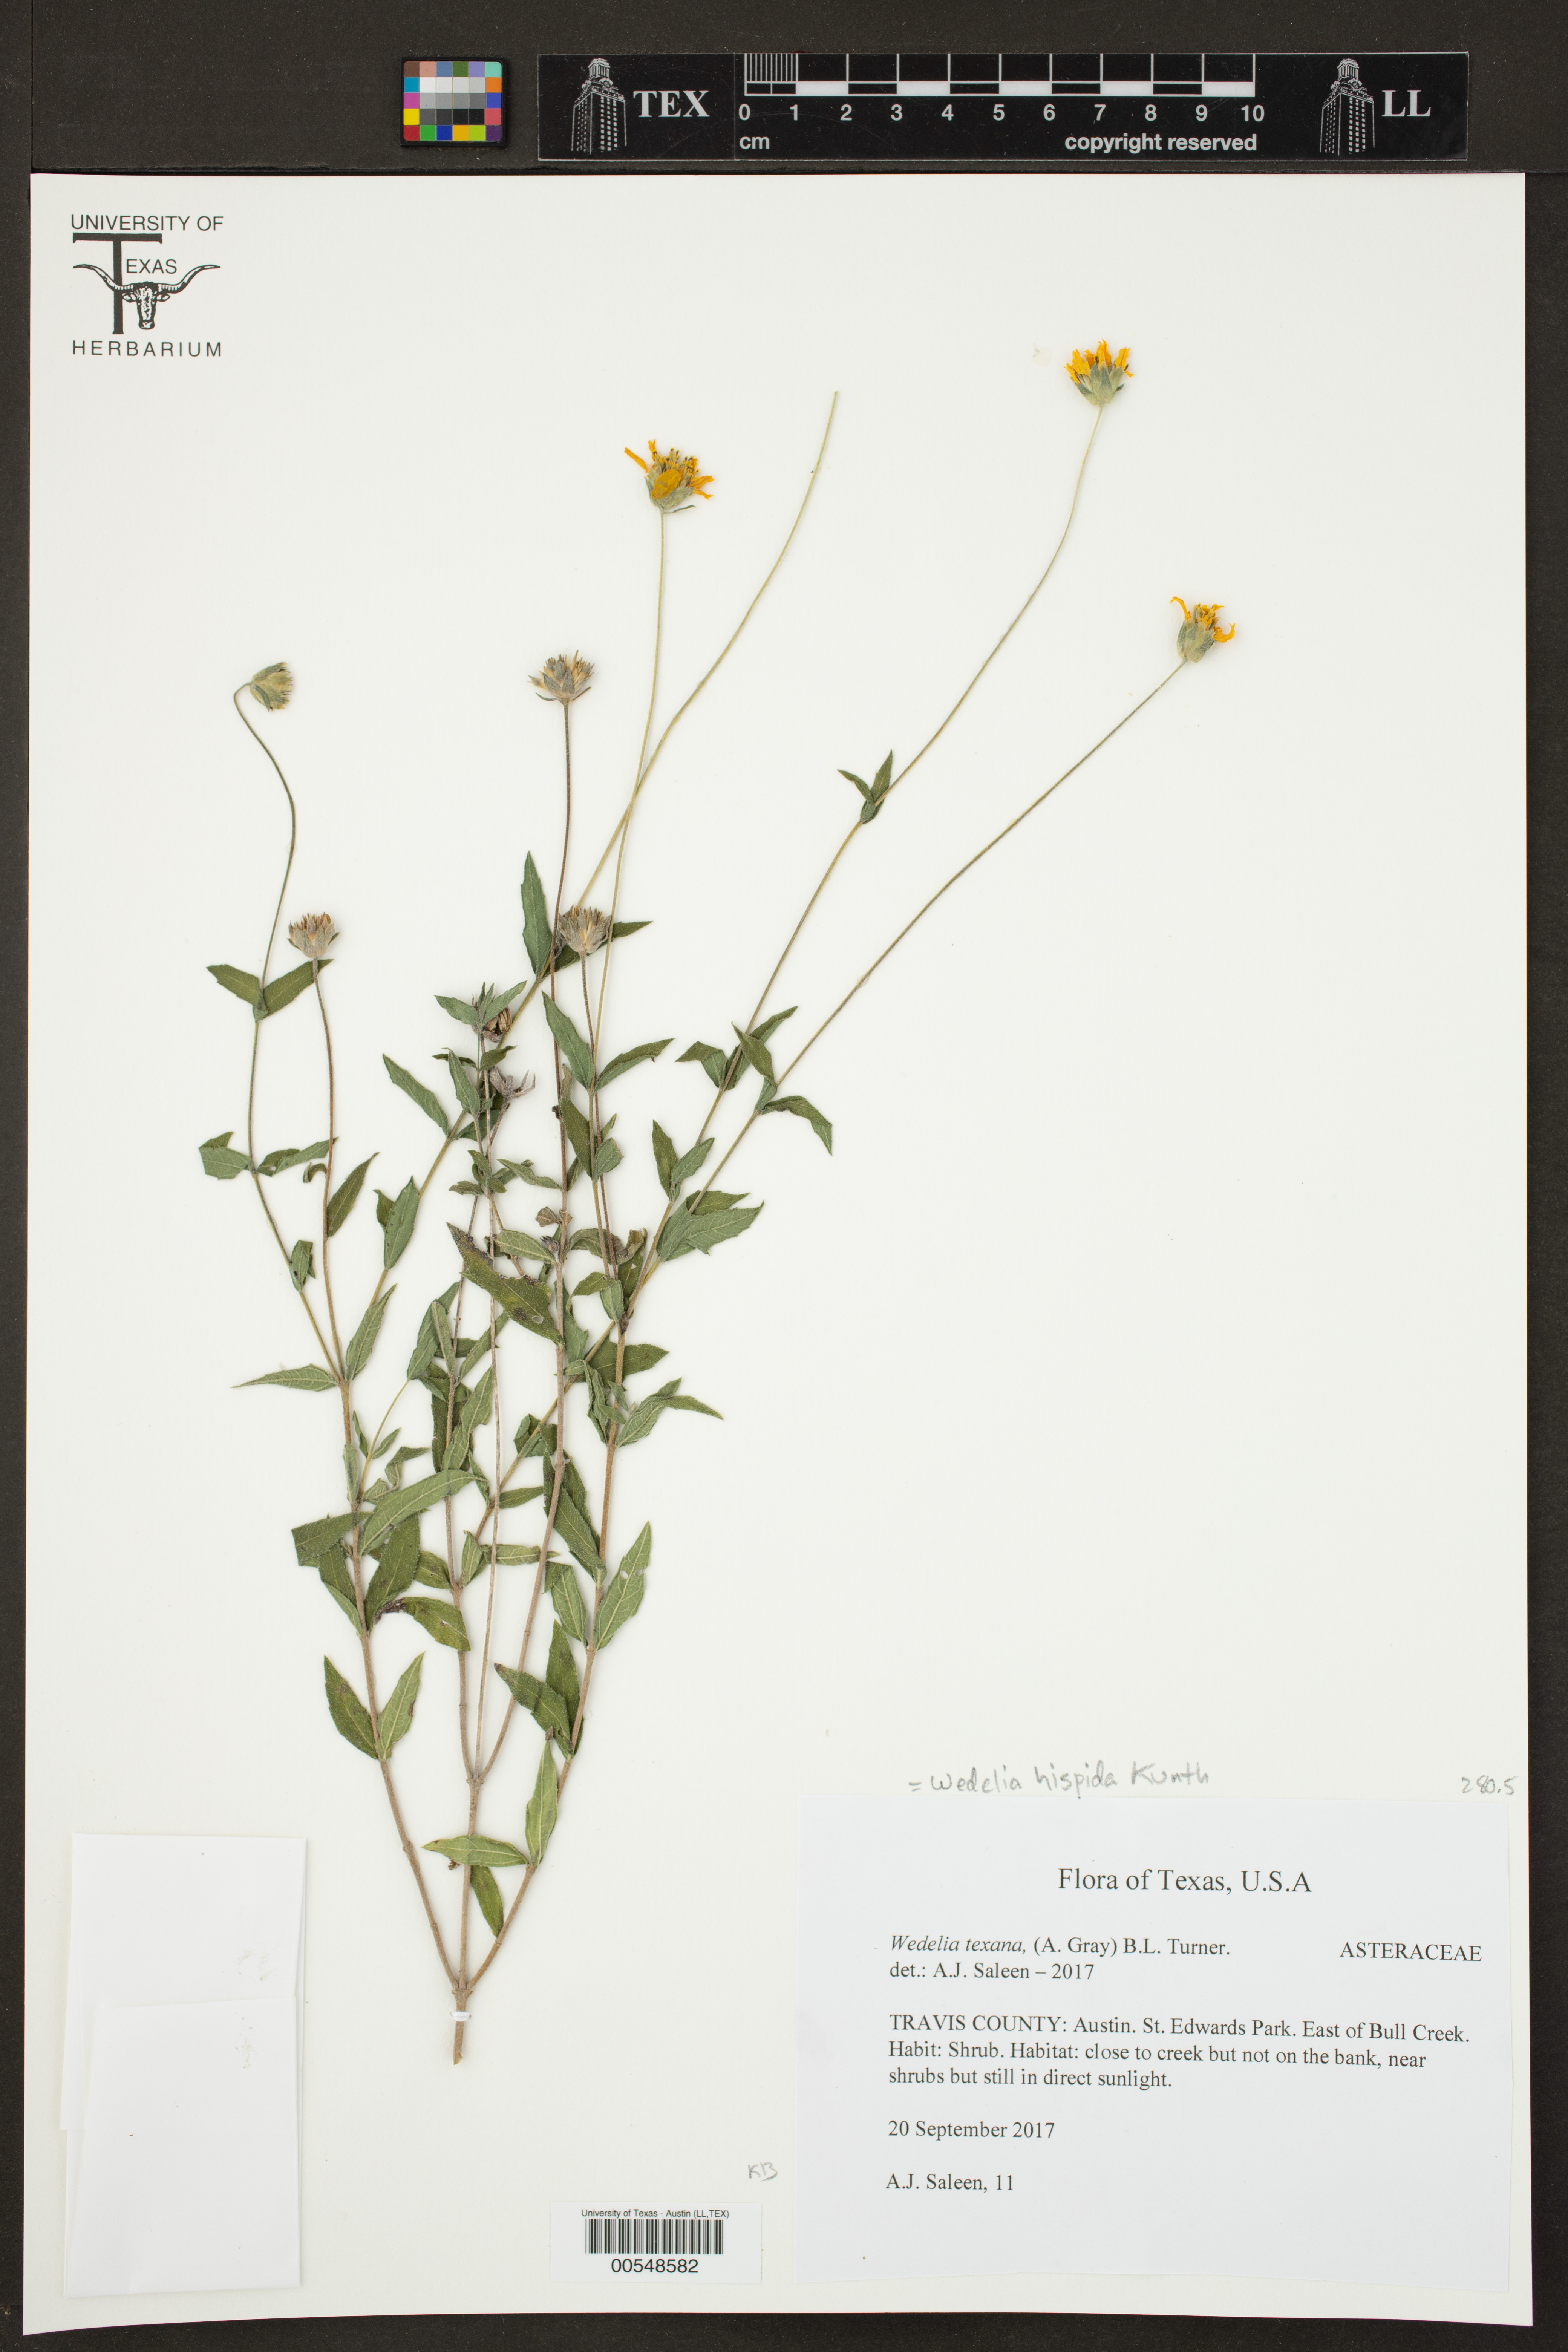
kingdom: Plantae
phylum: Tracheophyta
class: Magnoliopsida
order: Asterales
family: Asteraceae
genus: Wedelia
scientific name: Wedelia acapulcensis
